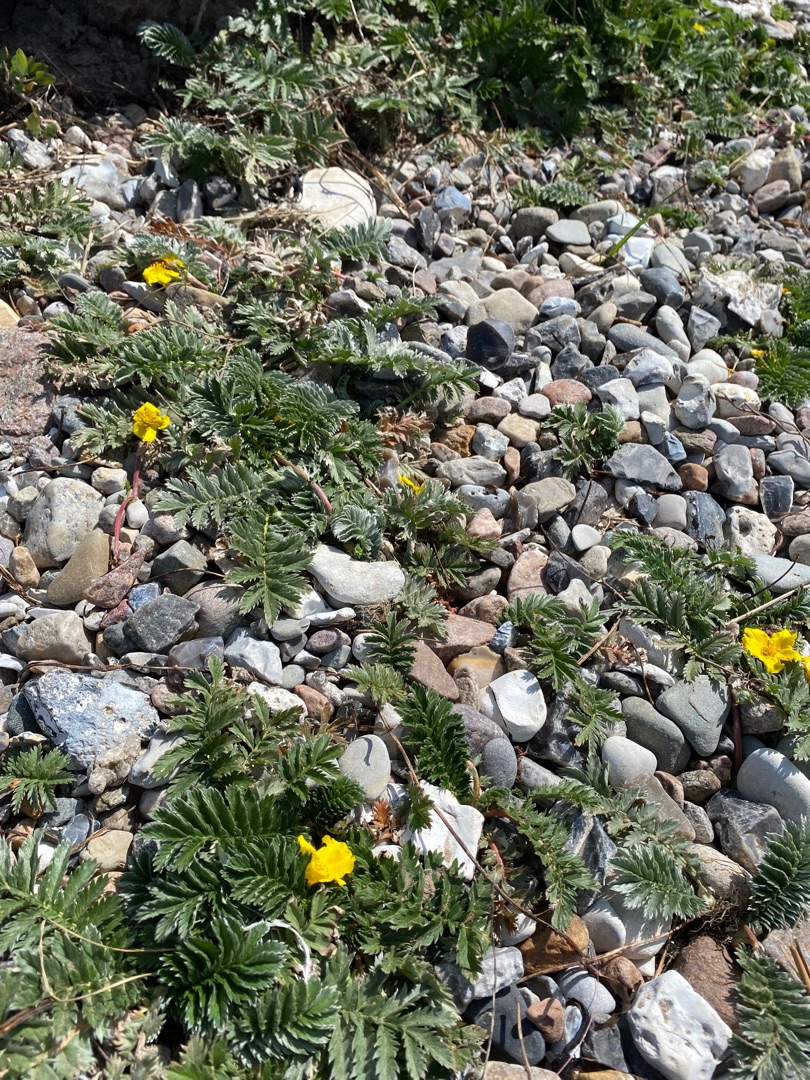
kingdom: Plantae
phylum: Tracheophyta
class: Magnoliopsida
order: Rosales
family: Rosaceae
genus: Argentina
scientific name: Argentina anserina
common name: Gåsepotentil
